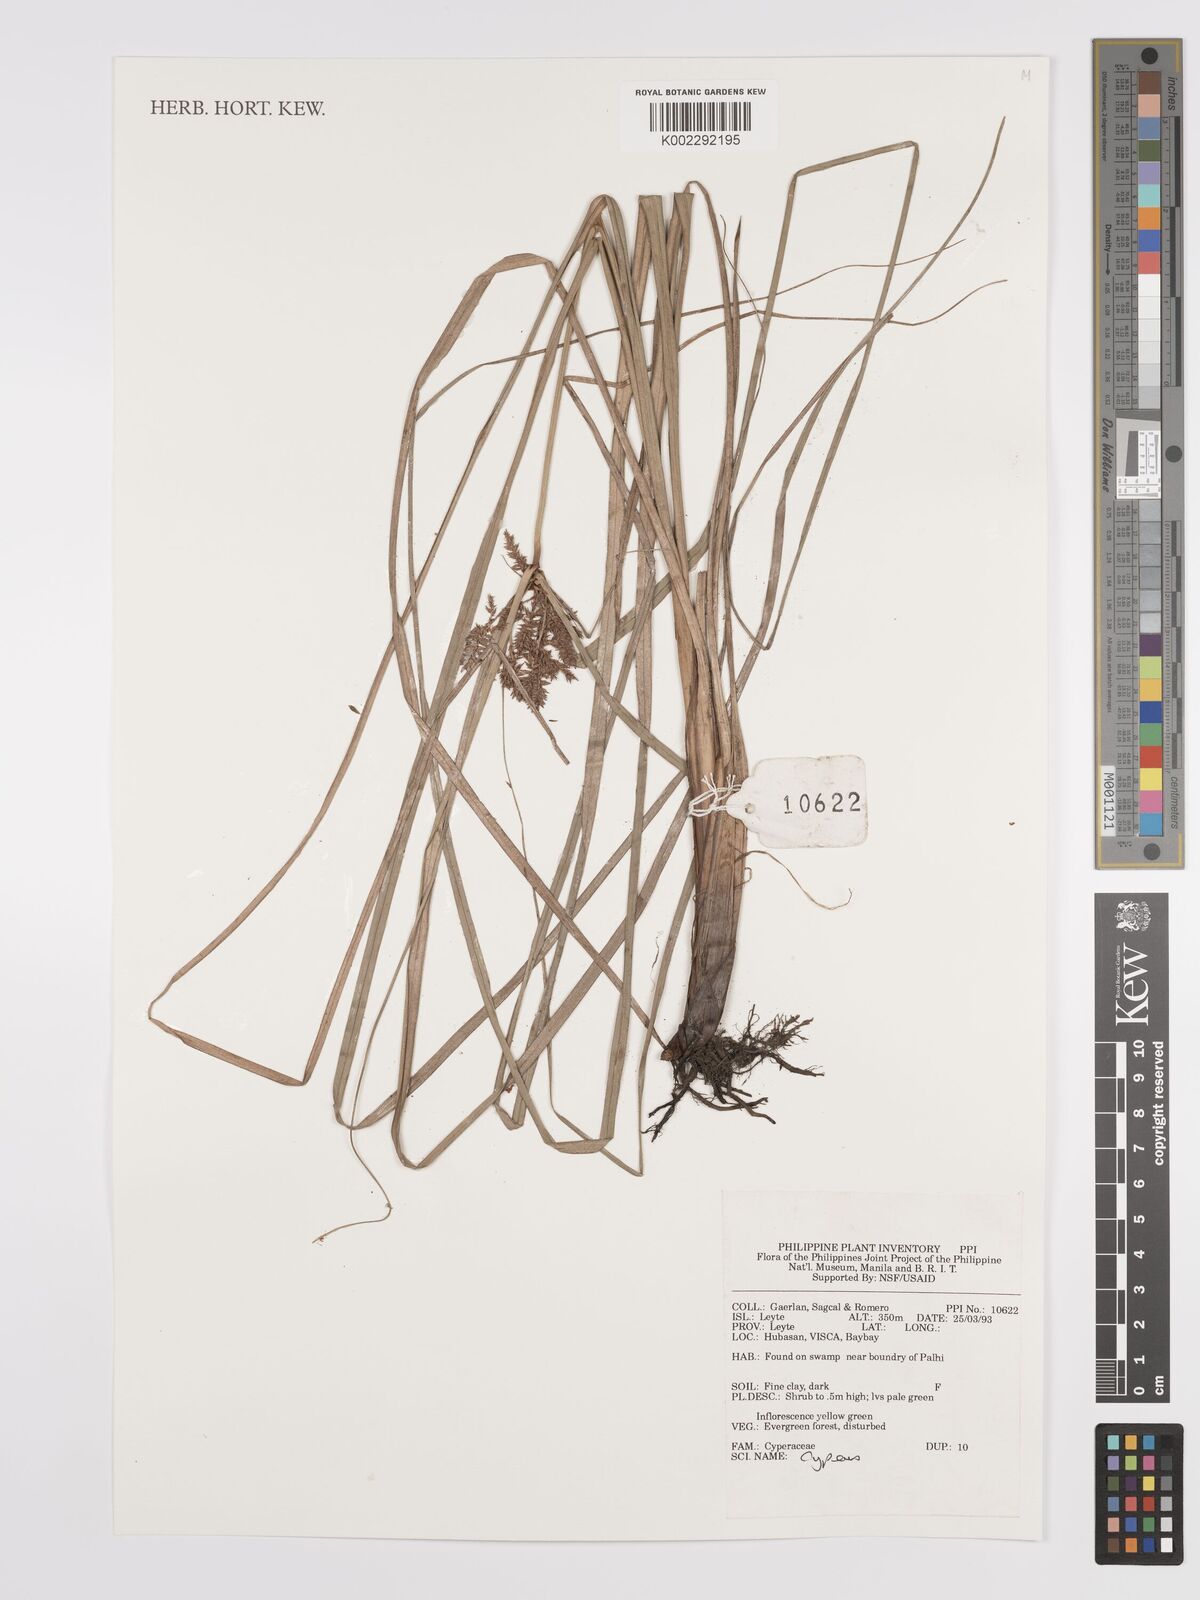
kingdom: Plantae
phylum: Tracheophyta
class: Liliopsida
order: Poales
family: Cyperaceae
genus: Cyperus
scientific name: Cyperus
